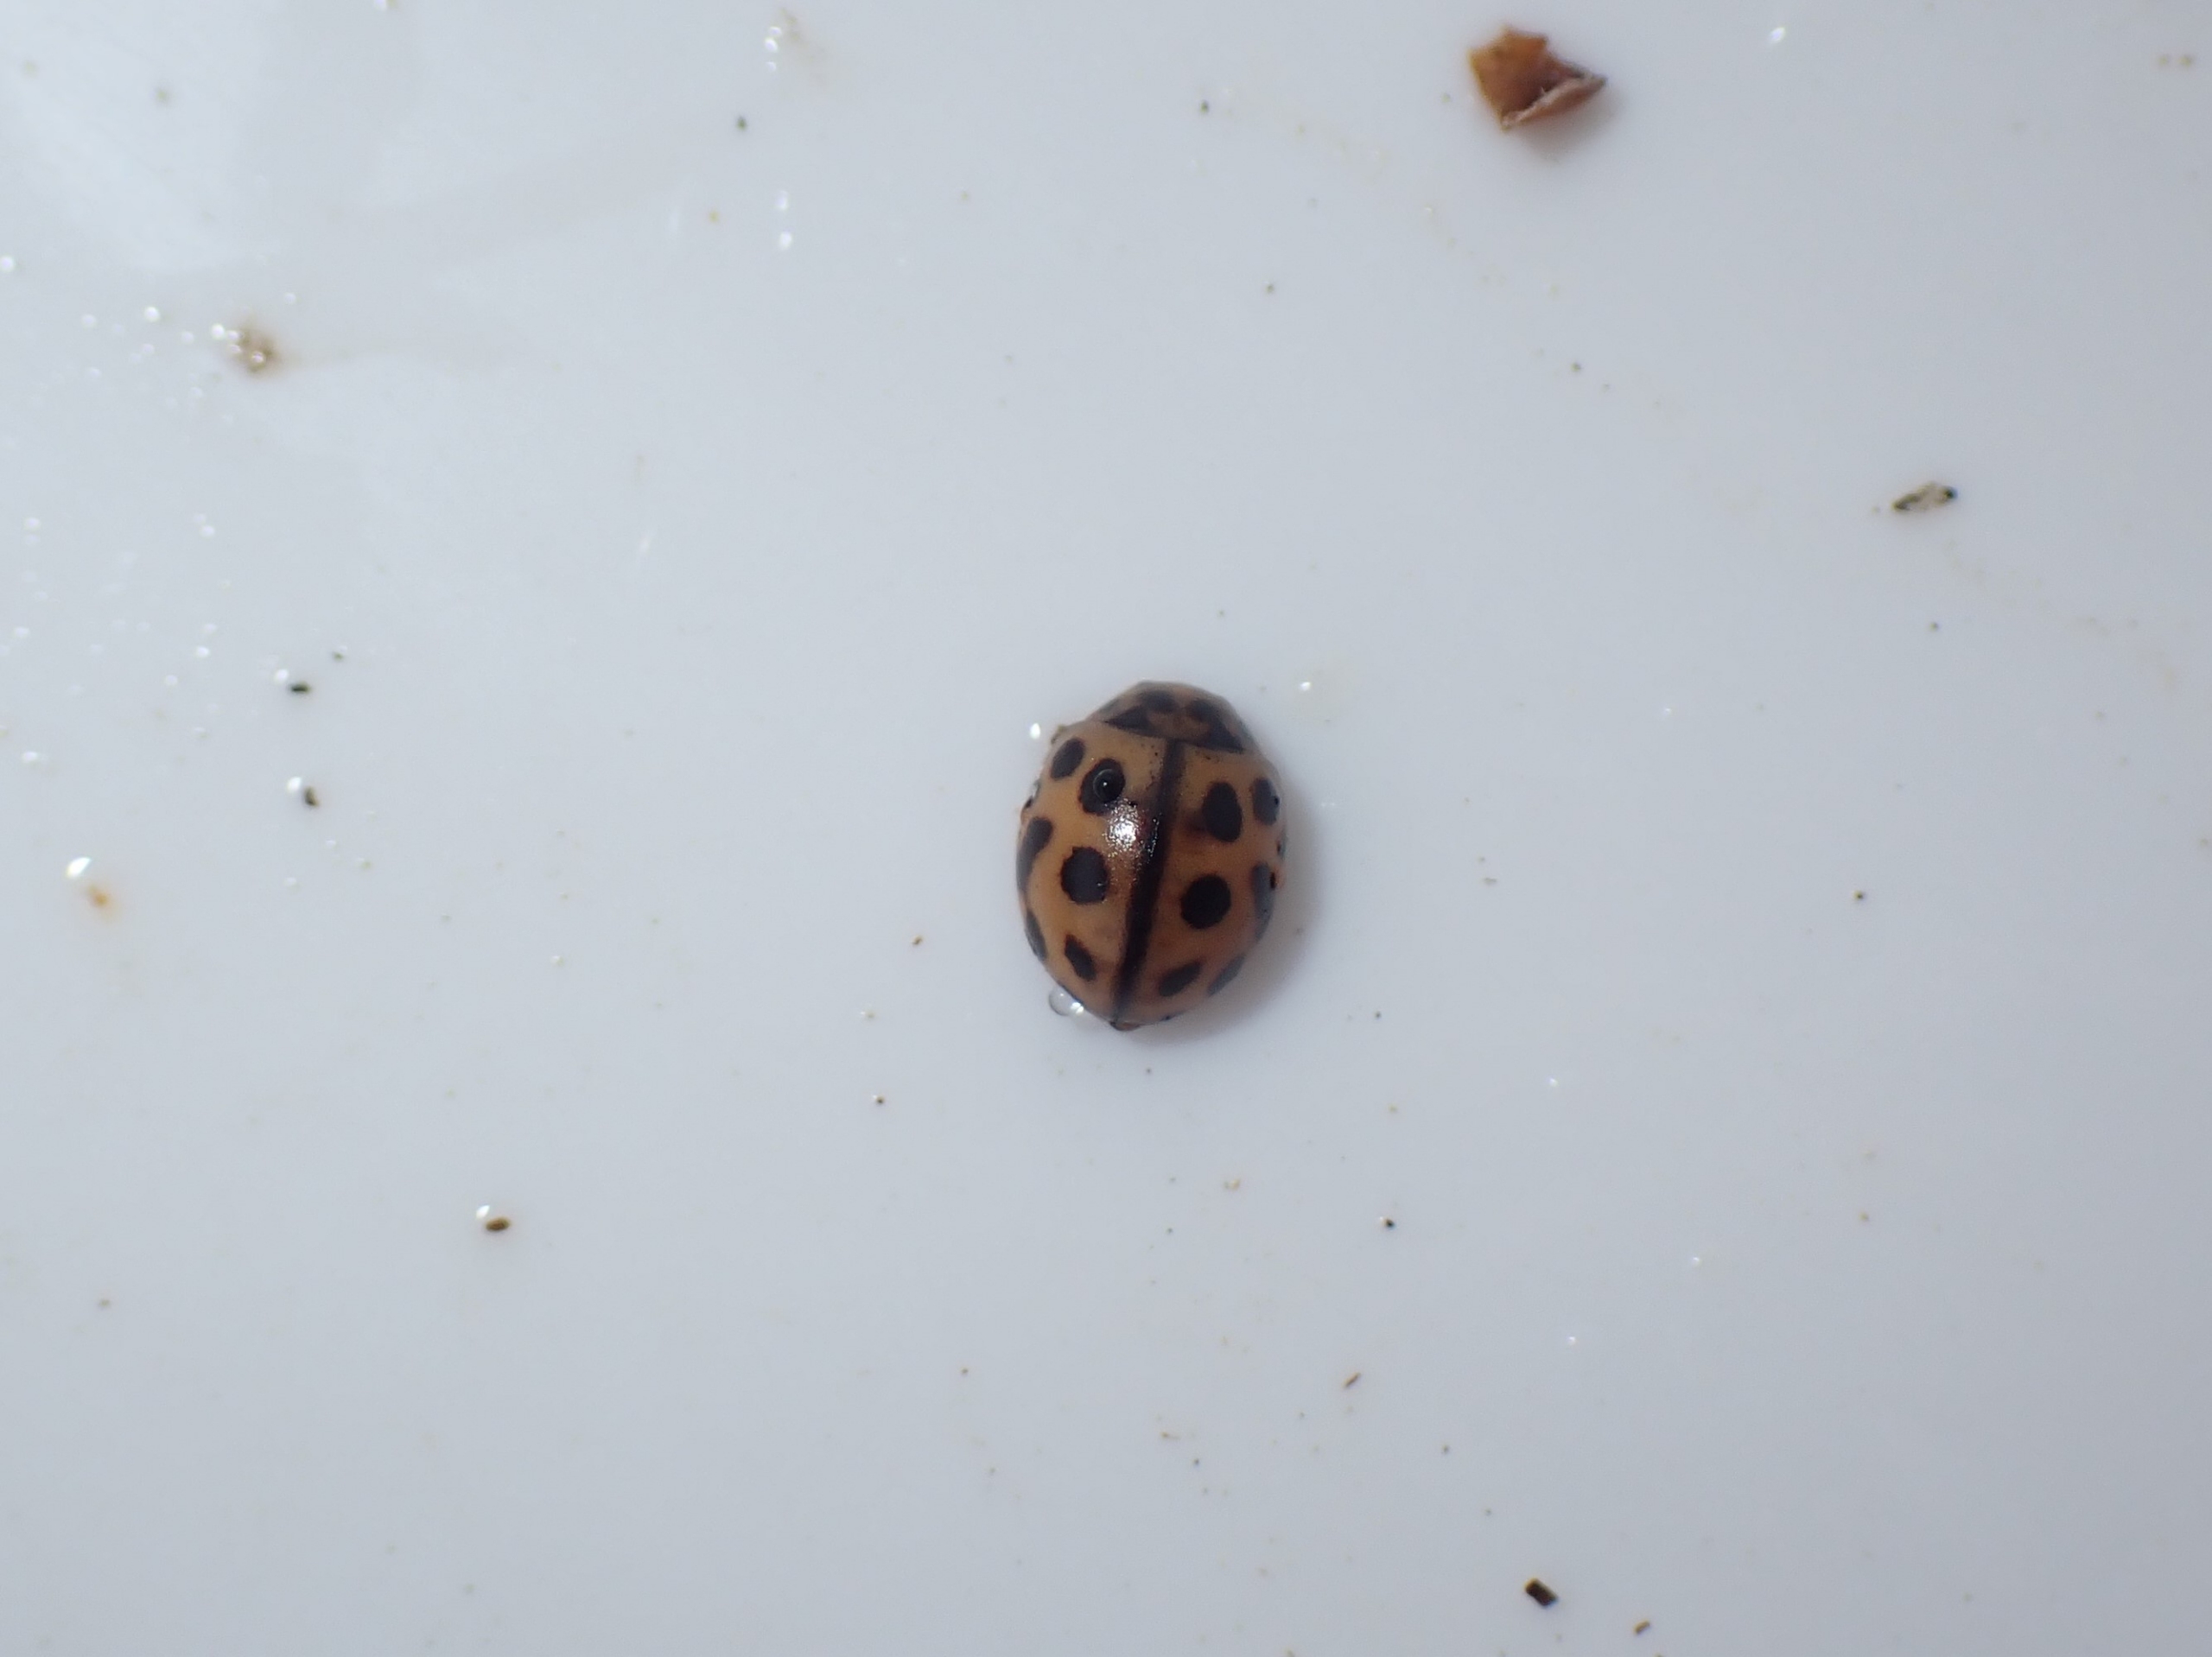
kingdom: Animalia
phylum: Arthropoda
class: Insecta
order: Coleoptera
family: Coccinellidae
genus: Tytthaspis
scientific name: Tytthaspis sedecimpunctata
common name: Sekstenprikket mariehøne
